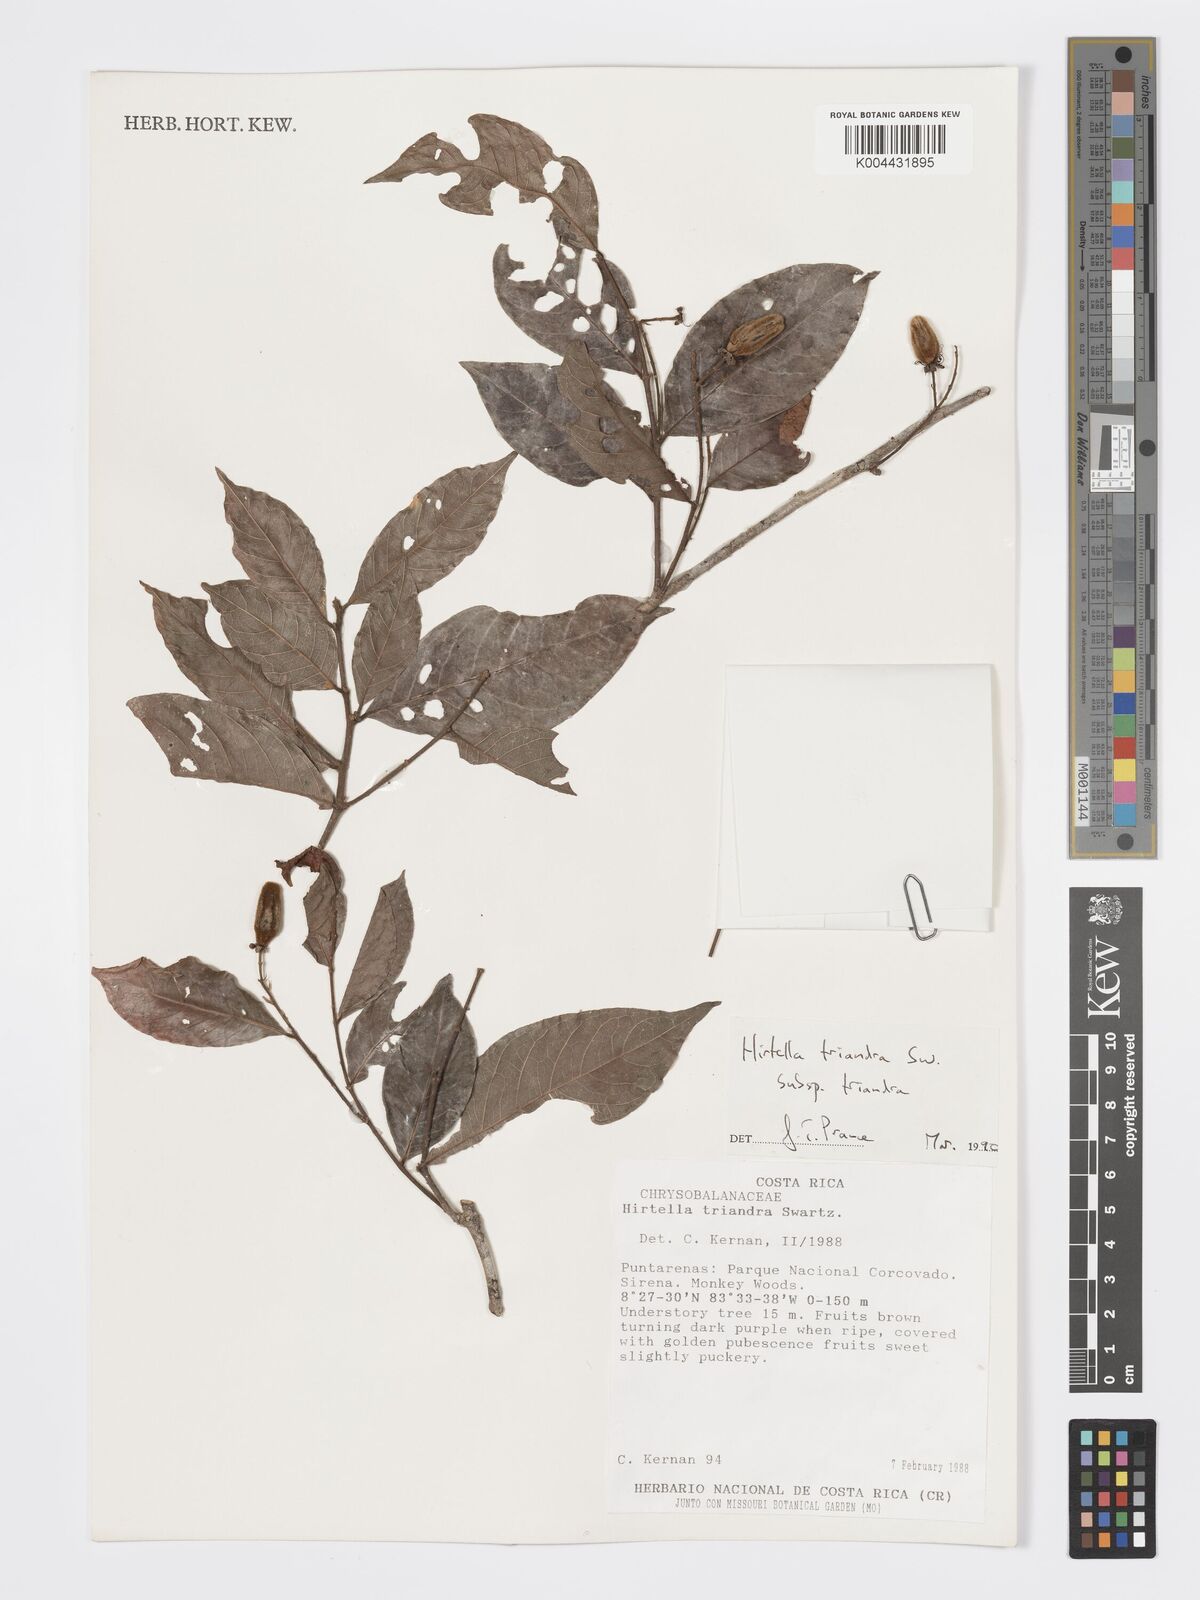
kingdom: Plantae
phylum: Tracheophyta
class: Magnoliopsida
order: Malpighiales
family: Chrysobalanaceae
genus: Hirtella
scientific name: Hirtella triandra
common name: Hairy plum
